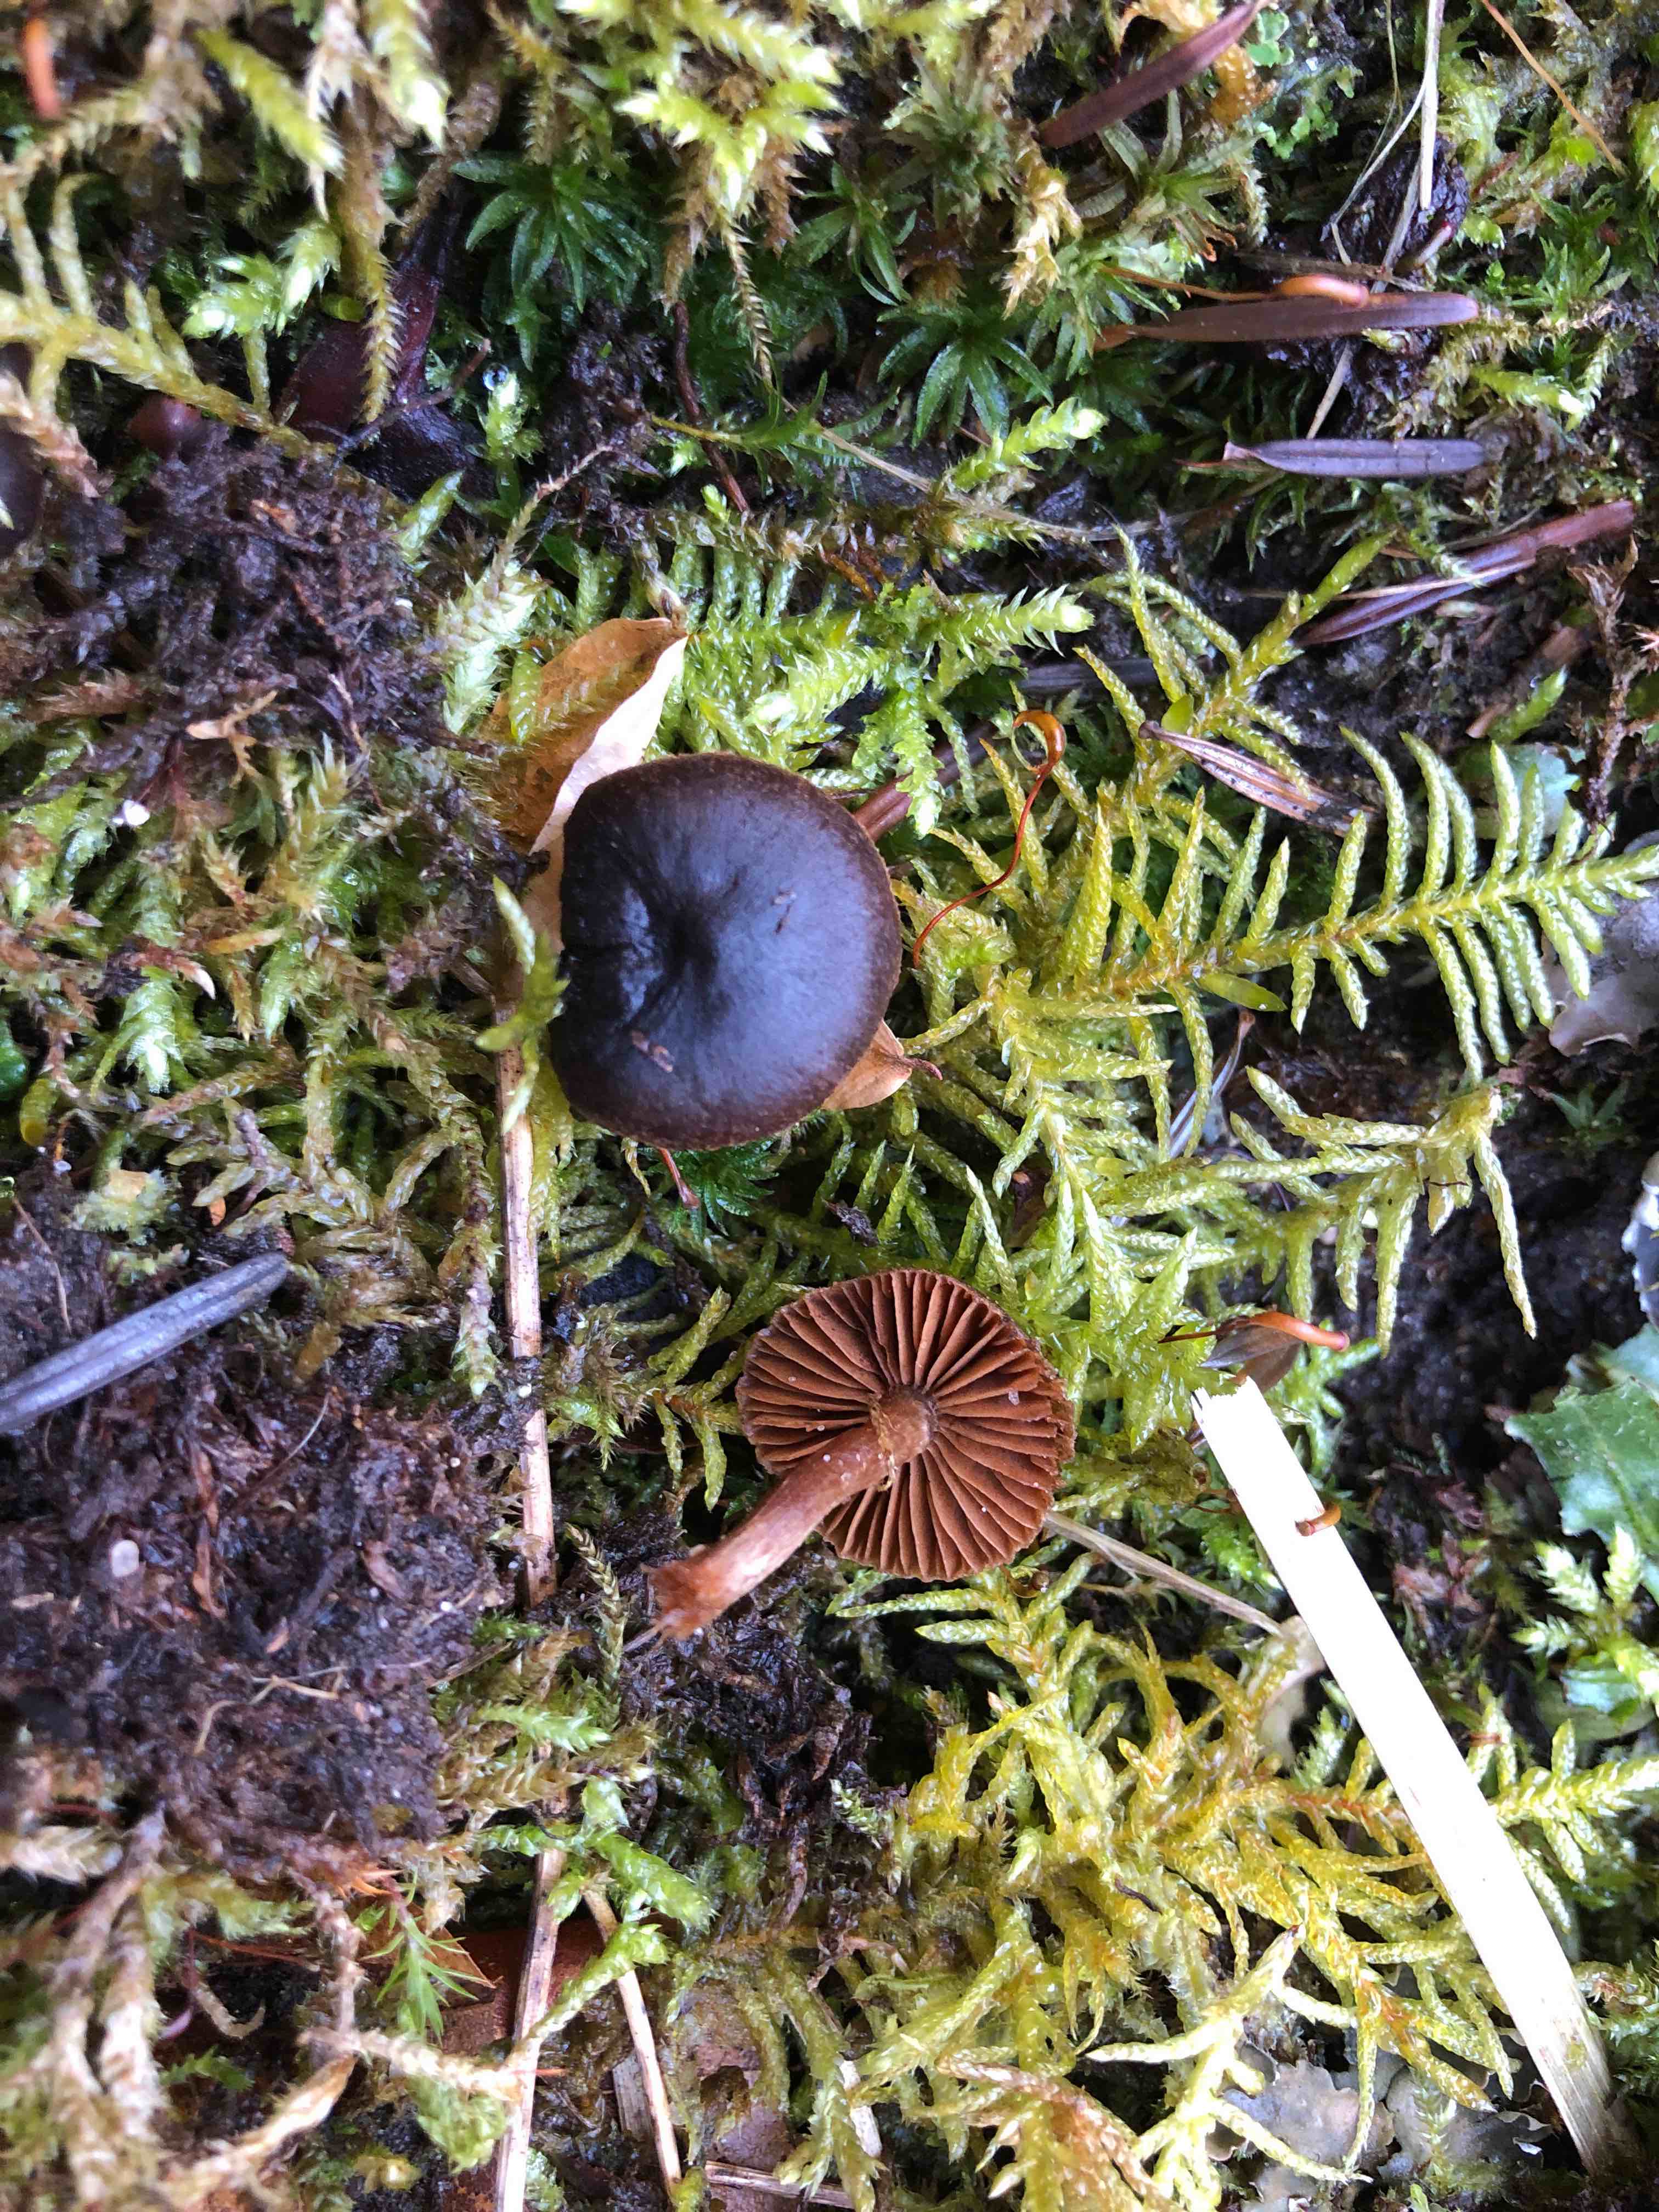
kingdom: Fungi
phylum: Basidiomycota
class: Agaricomycetes
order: Agaricales
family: Cortinariaceae
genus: Cortinarius
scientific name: Cortinarius
